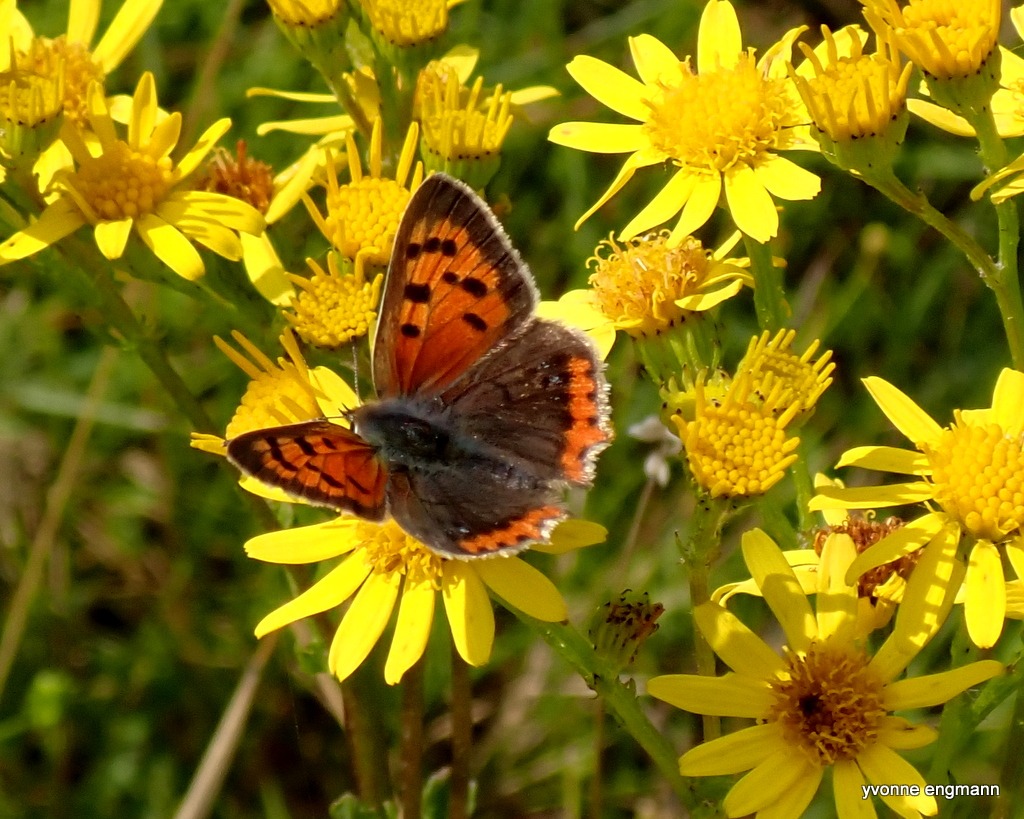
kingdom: Animalia
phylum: Arthropoda
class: Insecta
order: Lepidoptera
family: Lycaenidae
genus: Lycaena
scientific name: Lycaena phlaeas
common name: Lille ildfugl
